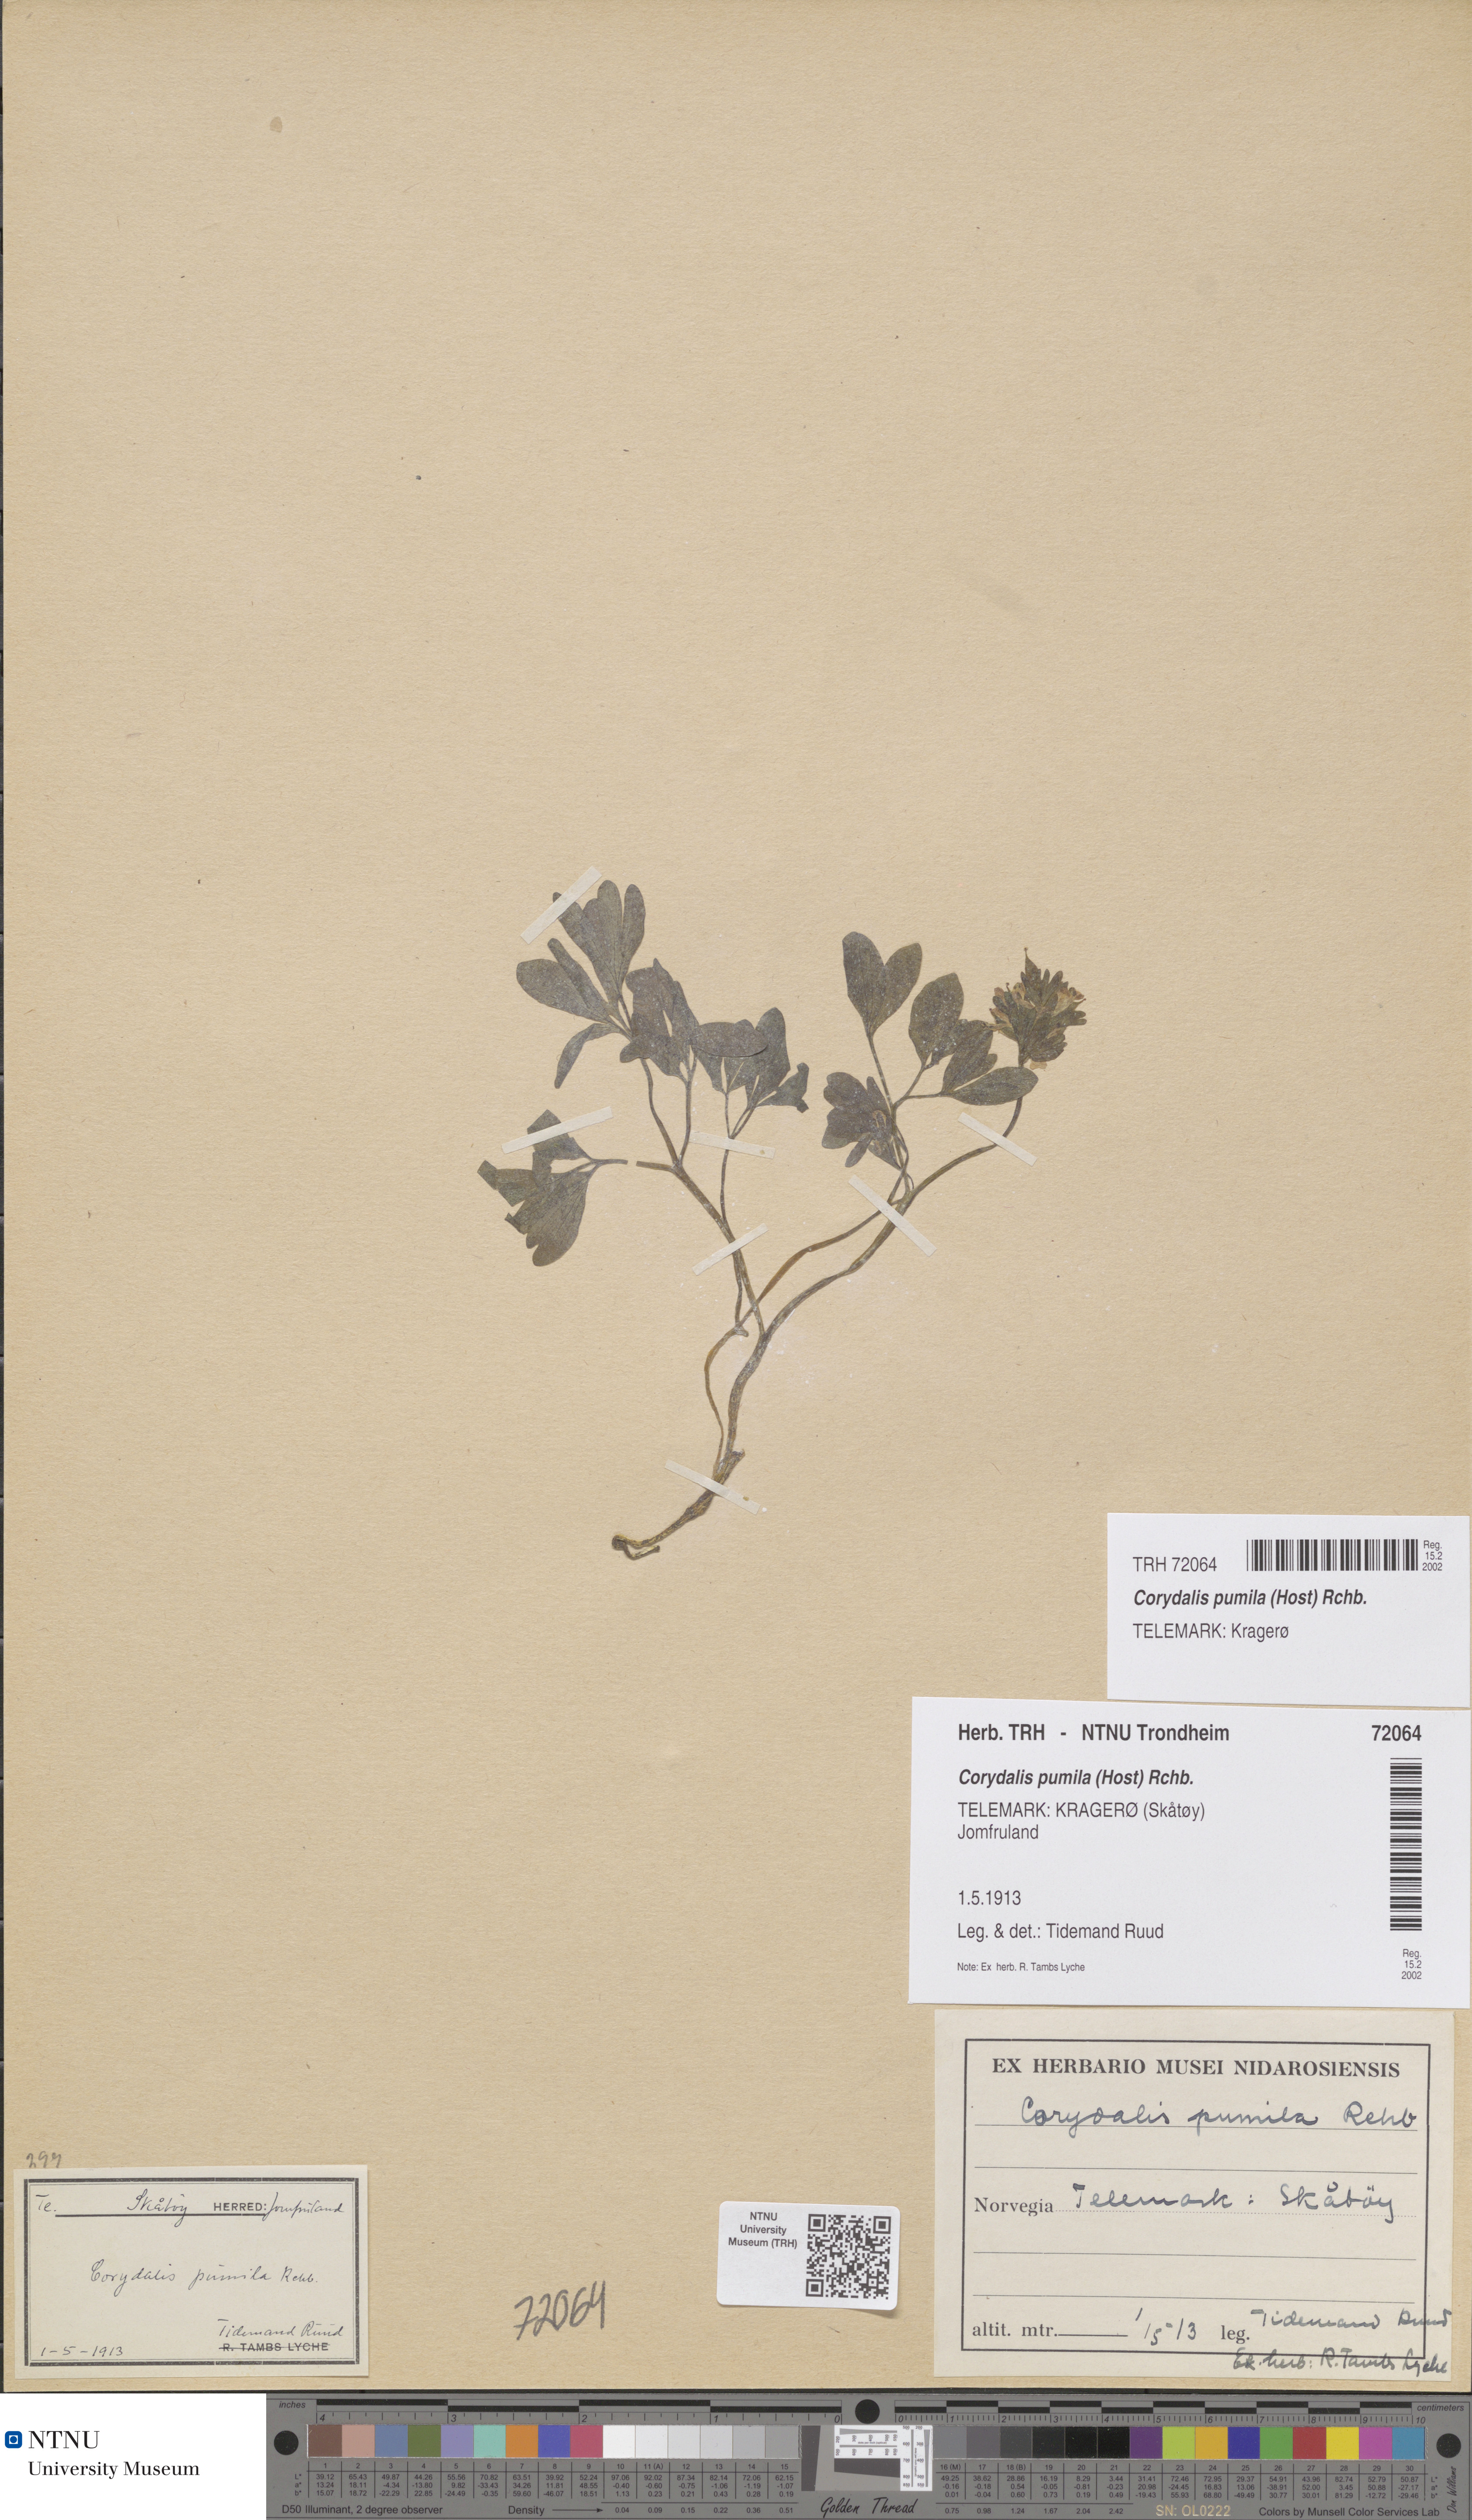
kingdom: Plantae
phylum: Tracheophyta
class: Magnoliopsida
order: Ranunculales
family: Papaveraceae
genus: Corydalis
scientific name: Corydalis pumila
